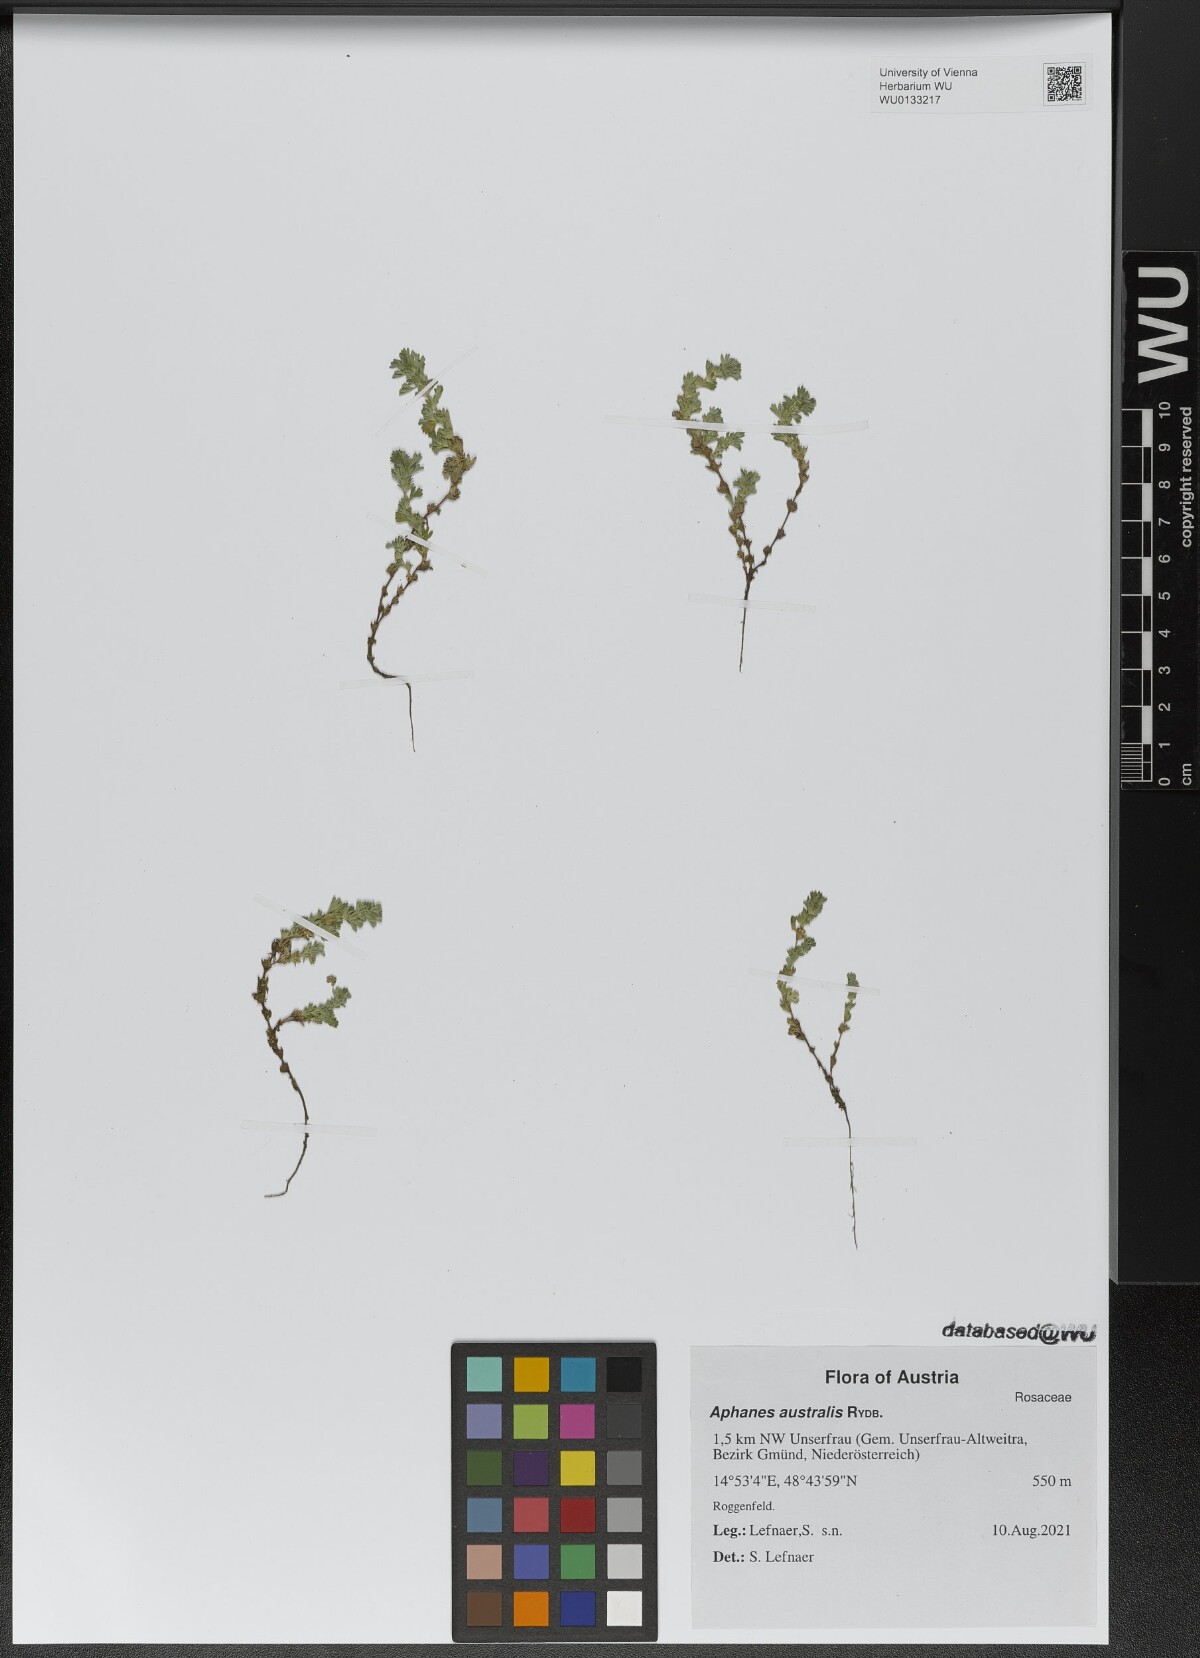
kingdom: Plantae
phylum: Tracheophyta
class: Magnoliopsida
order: Rosales
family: Rosaceae
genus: Aphanes
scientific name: Aphanes australis
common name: Slender parsley-piert
